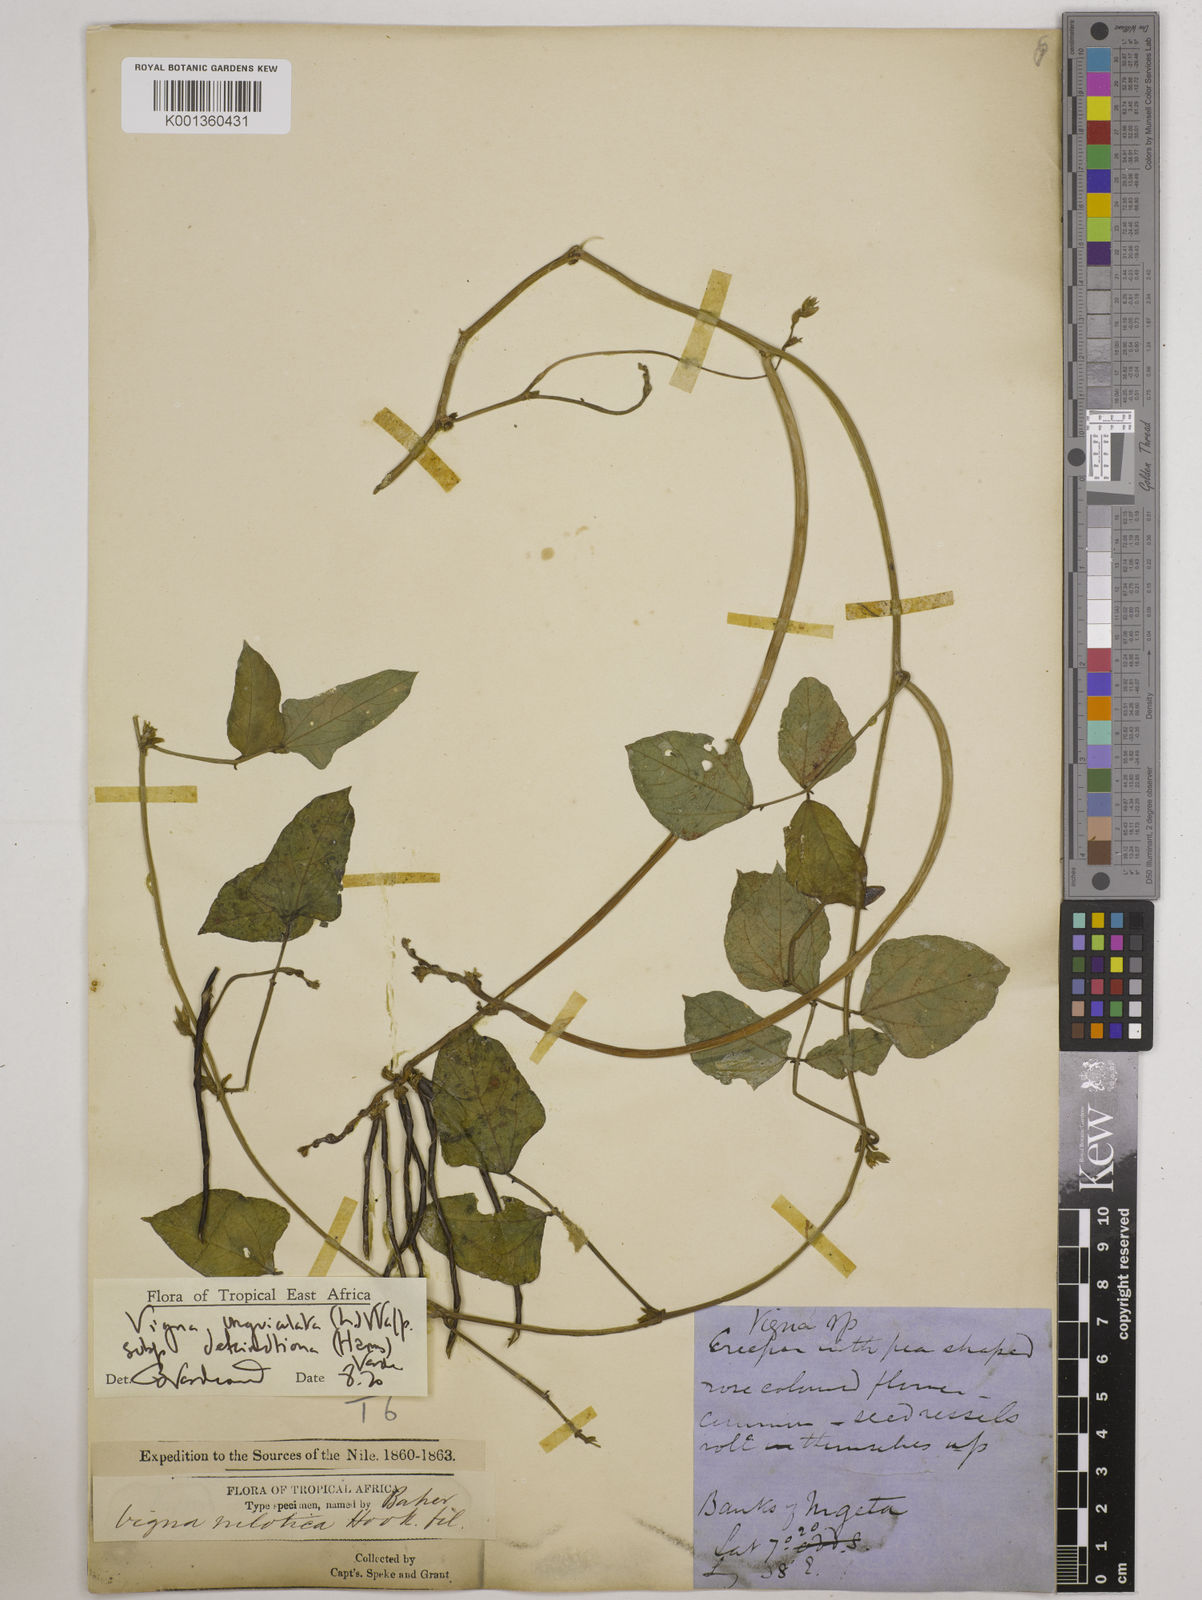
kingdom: Plantae
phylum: Tracheophyta
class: Magnoliopsida
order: Fabales
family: Fabaceae
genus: Vigna
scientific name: Vigna
